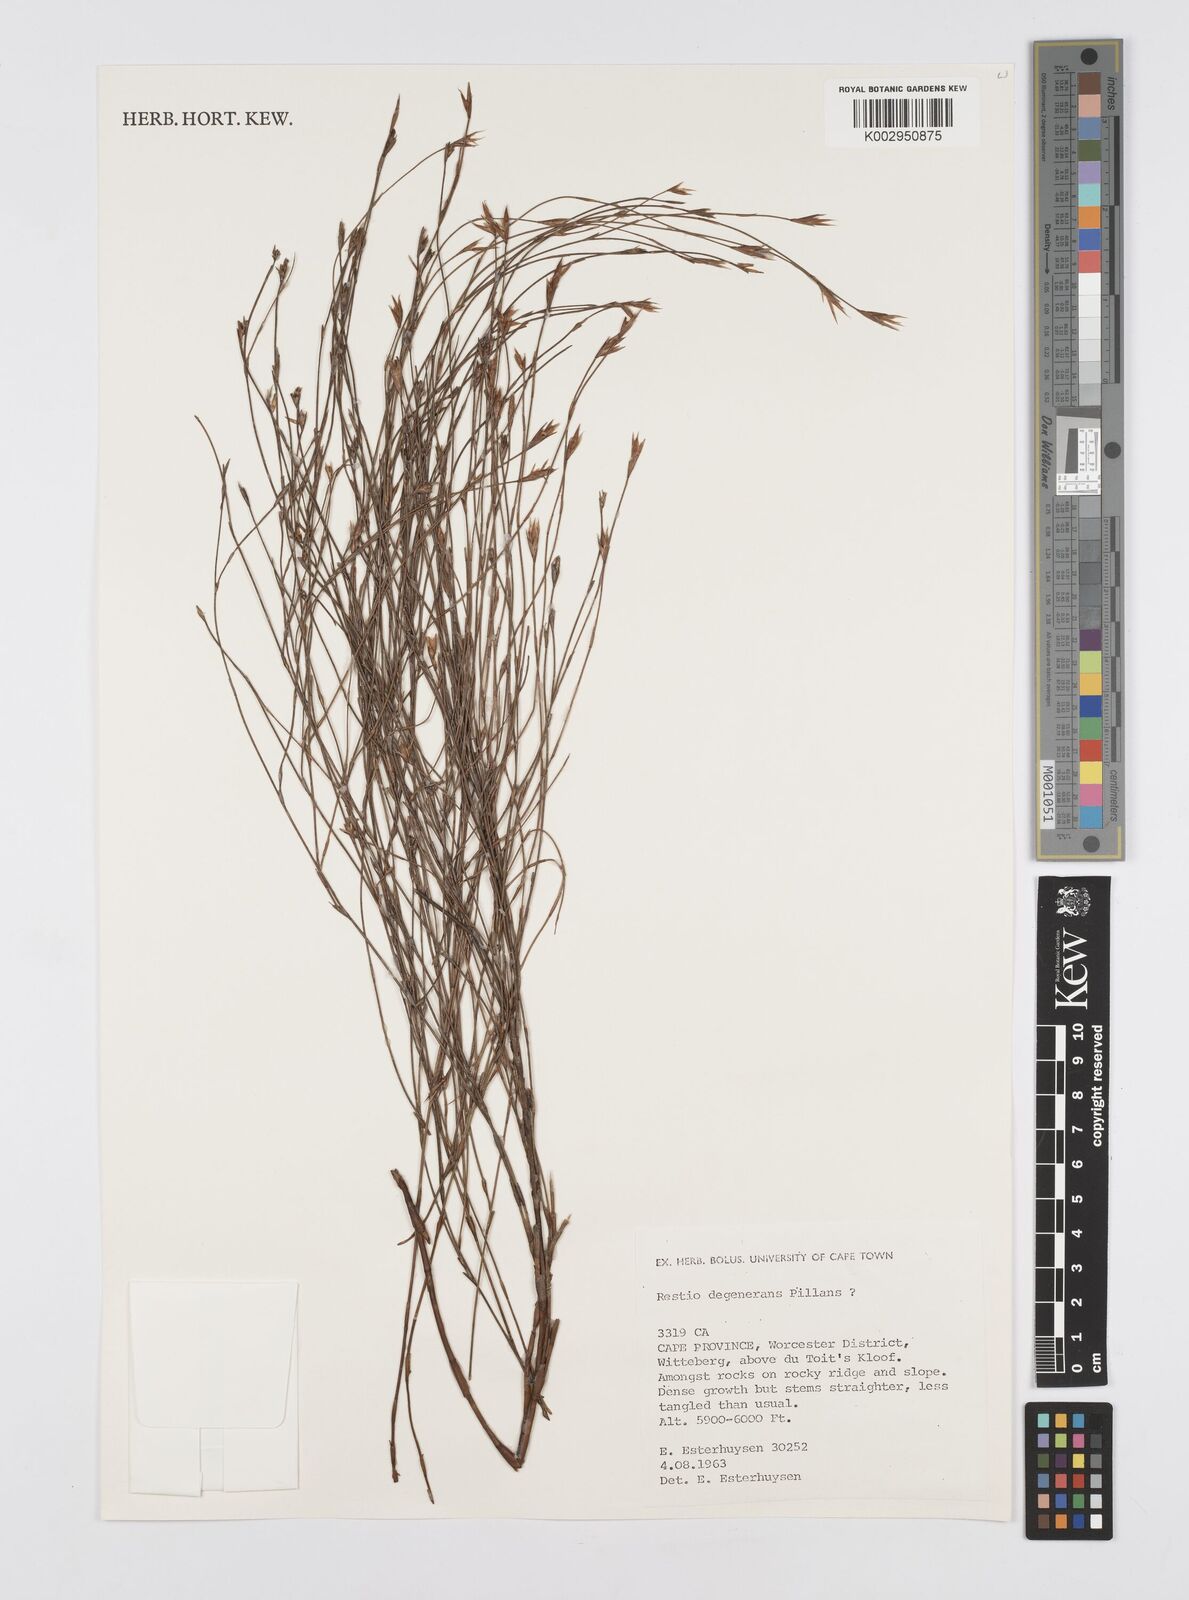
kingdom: Plantae
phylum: Tracheophyta
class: Liliopsida
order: Poales
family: Restionaceae
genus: Restio
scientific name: Restio degenerans
